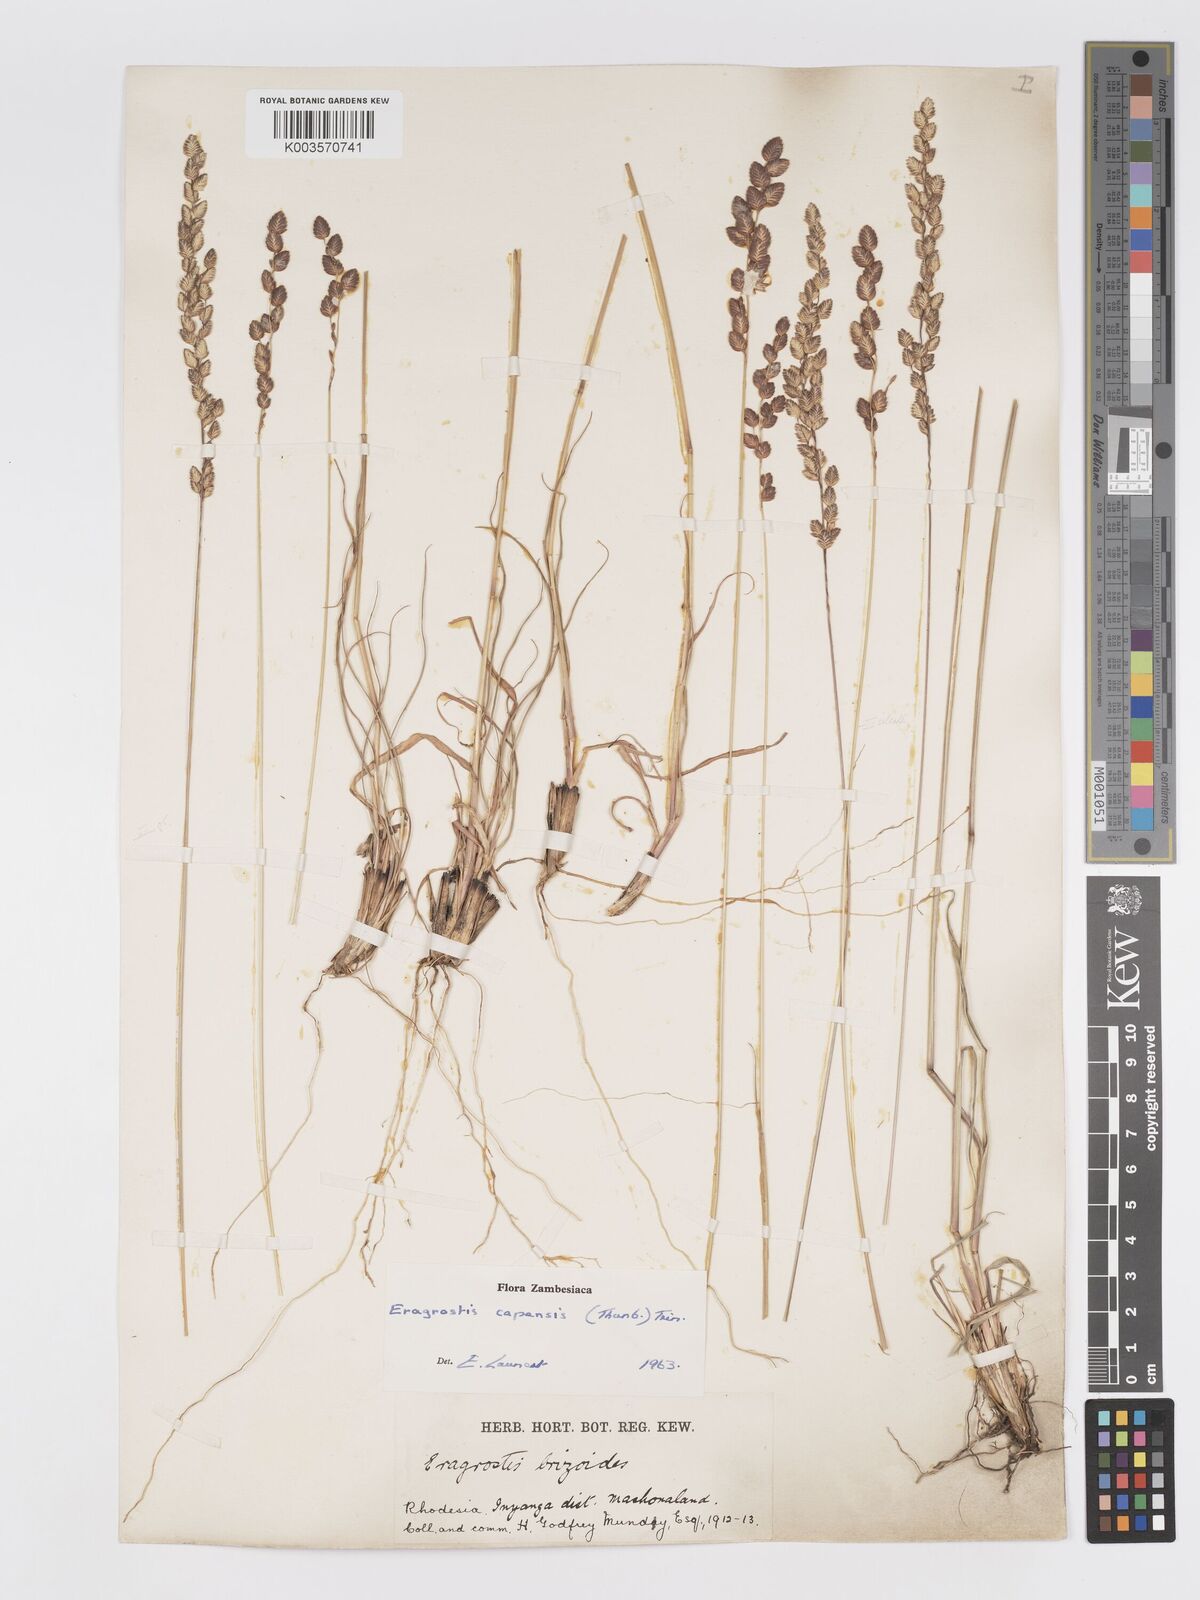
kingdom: Plantae
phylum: Tracheophyta
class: Liliopsida
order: Poales
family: Poaceae
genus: Eragrostis
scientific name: Eragrostis capensis
